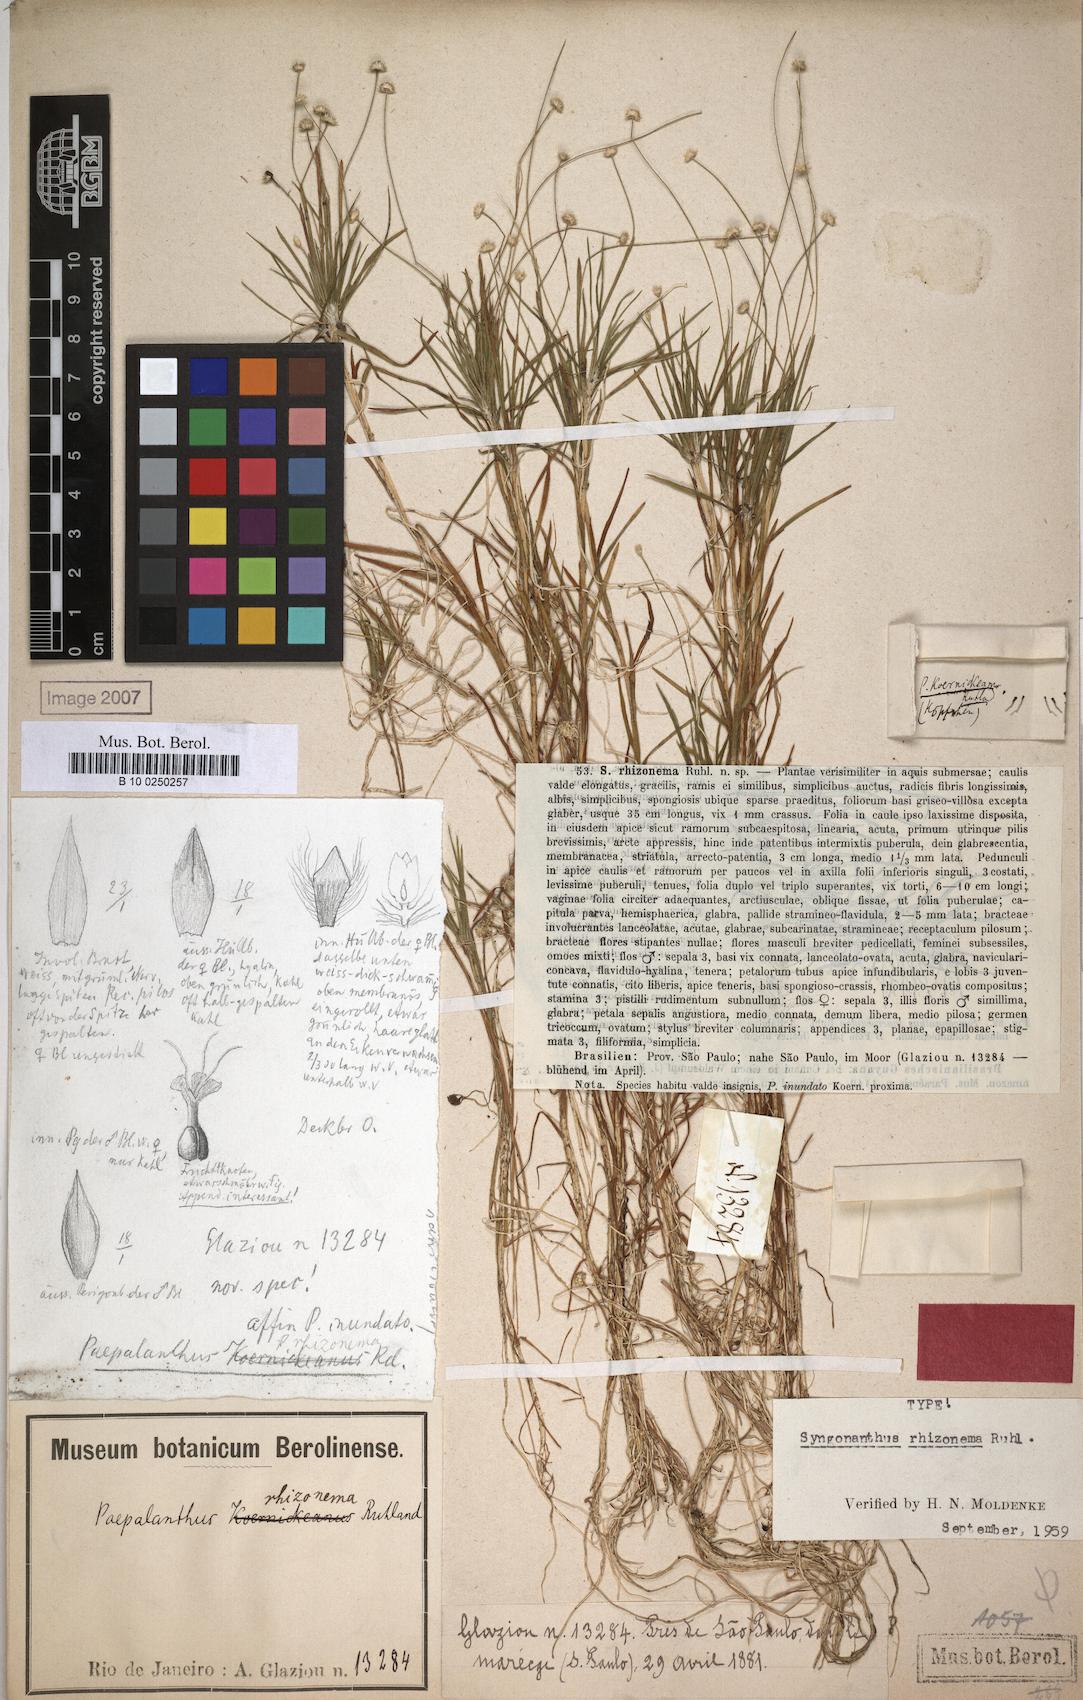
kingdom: Plantae
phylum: Tracheophyta
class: Liliopsida
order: Poales
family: Eriocaulaceae
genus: Syngonanthus
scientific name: Syngonanthus rhizonema
